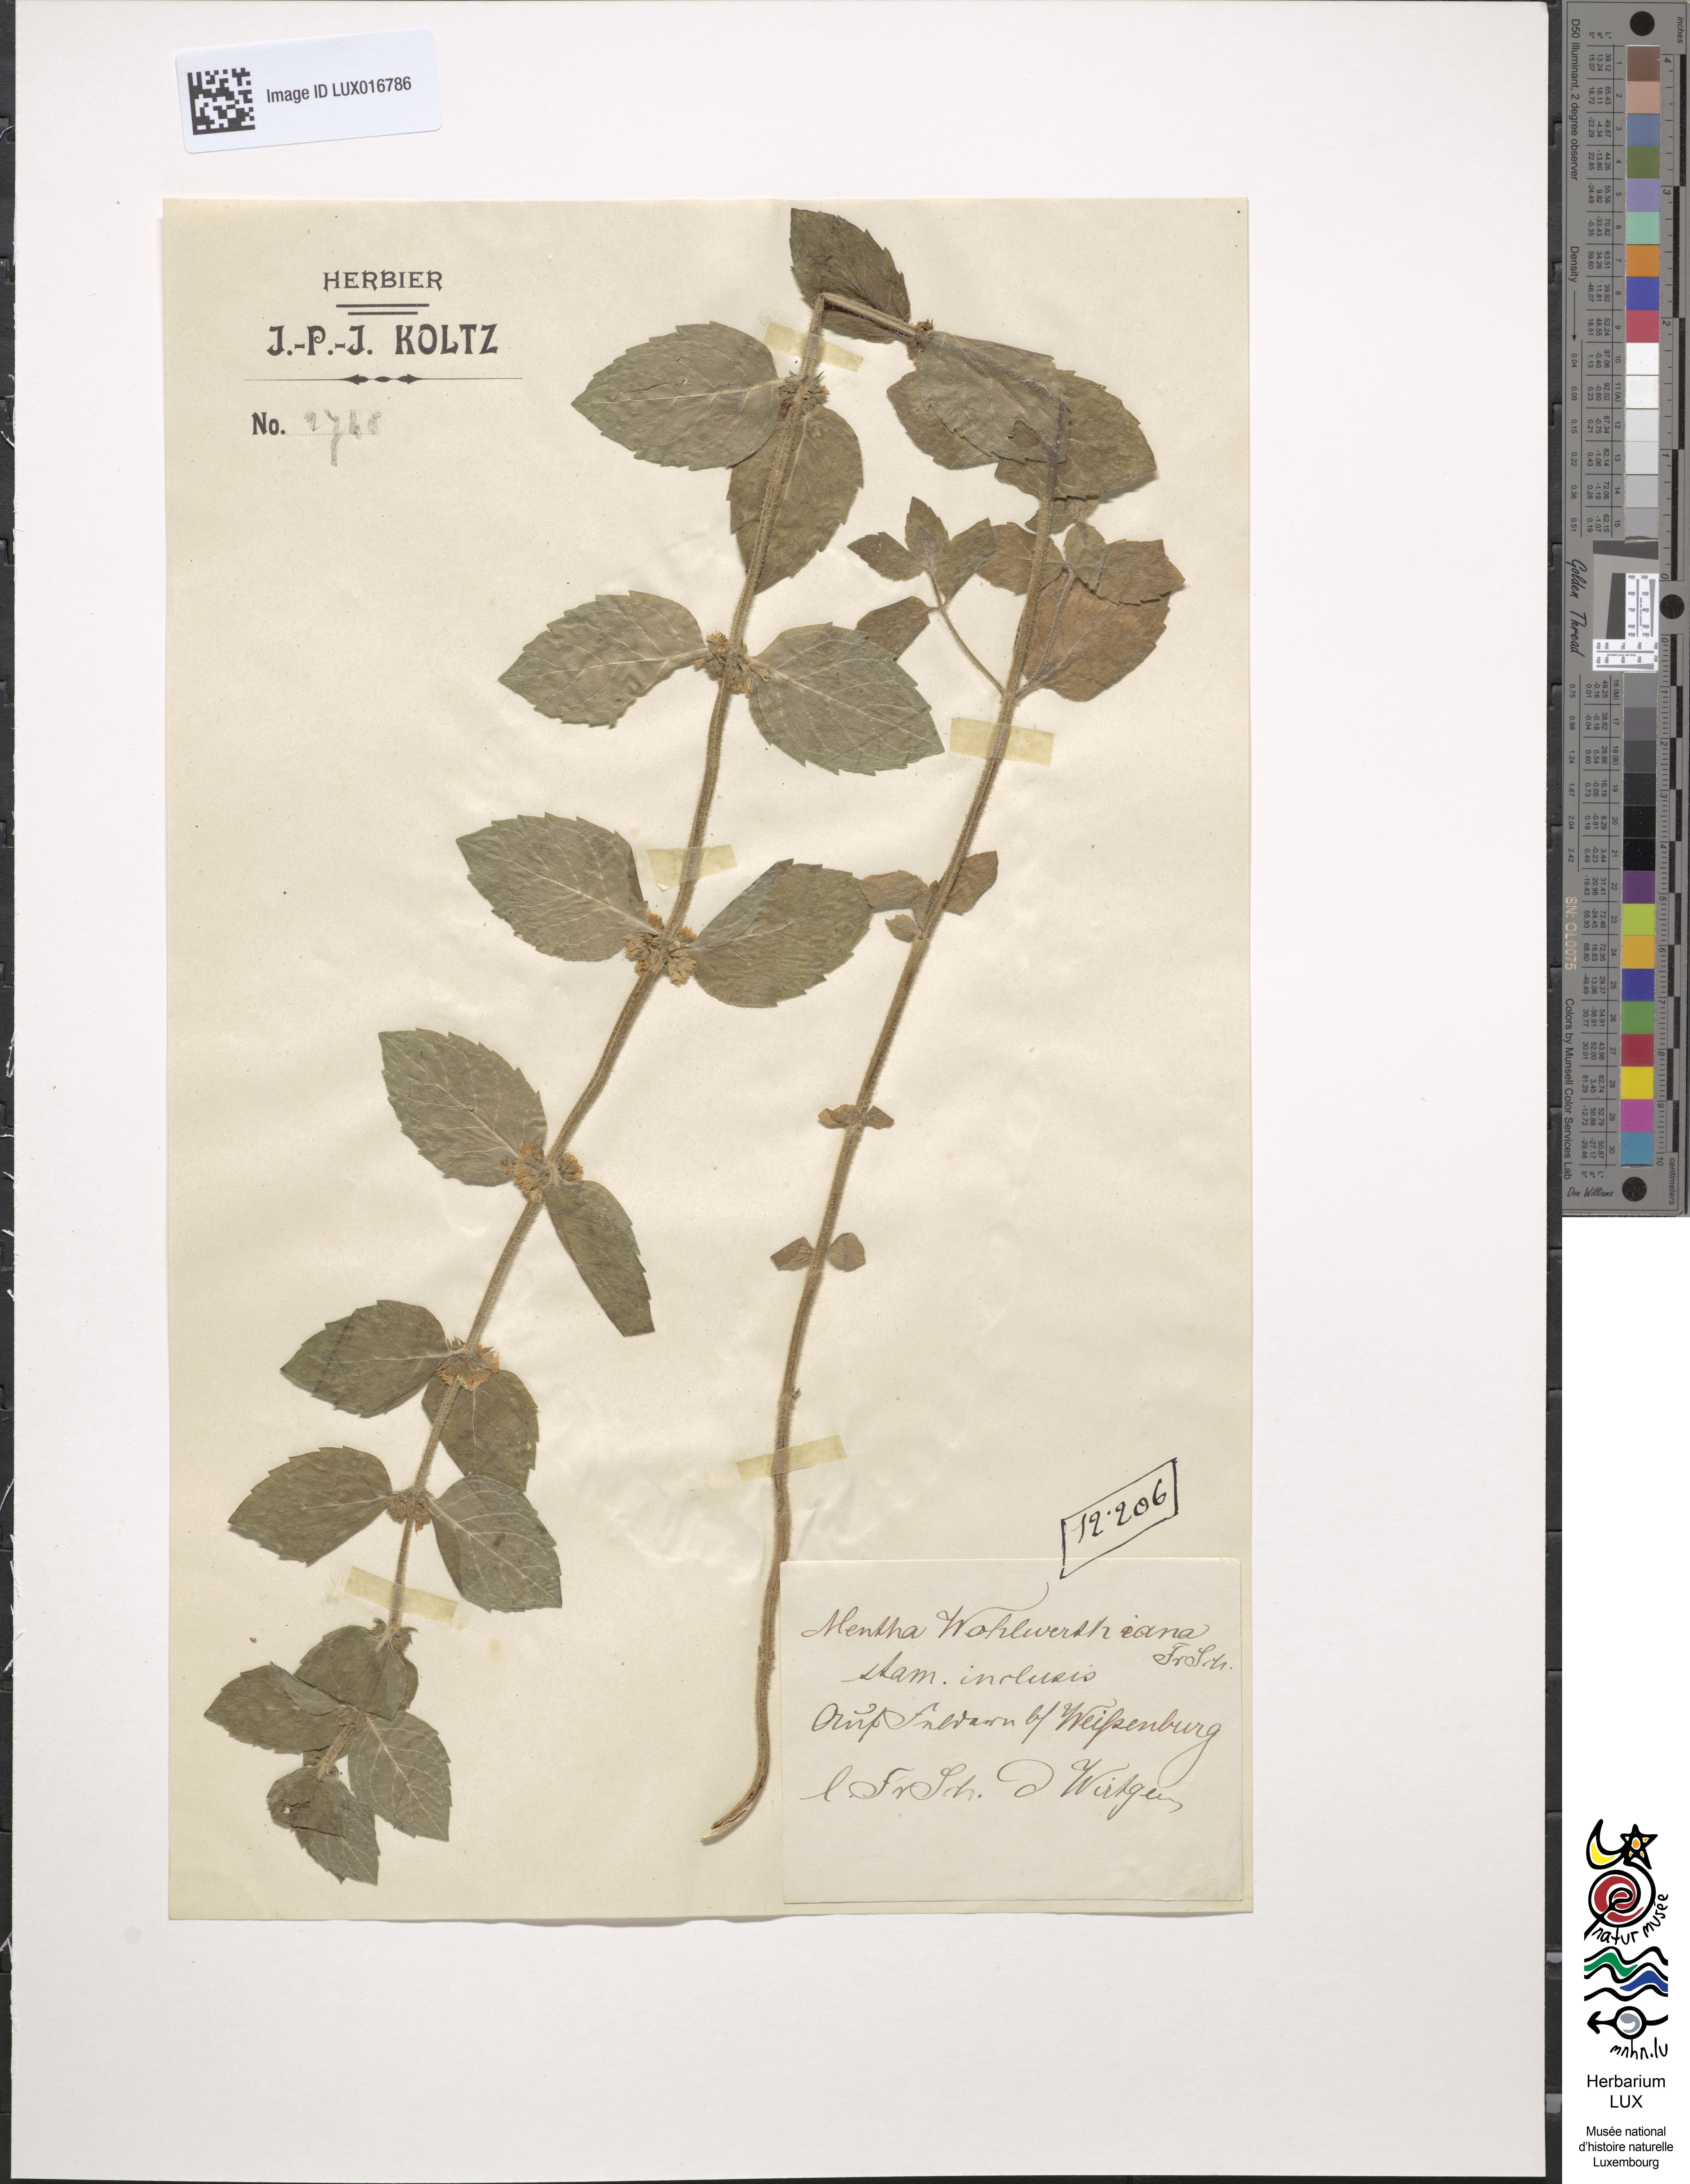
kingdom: Plantae
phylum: Tracheophyta
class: Magnoliopsida
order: Lamiales
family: Lamiaceae
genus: Mentha
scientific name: Mentha carinthiaca
